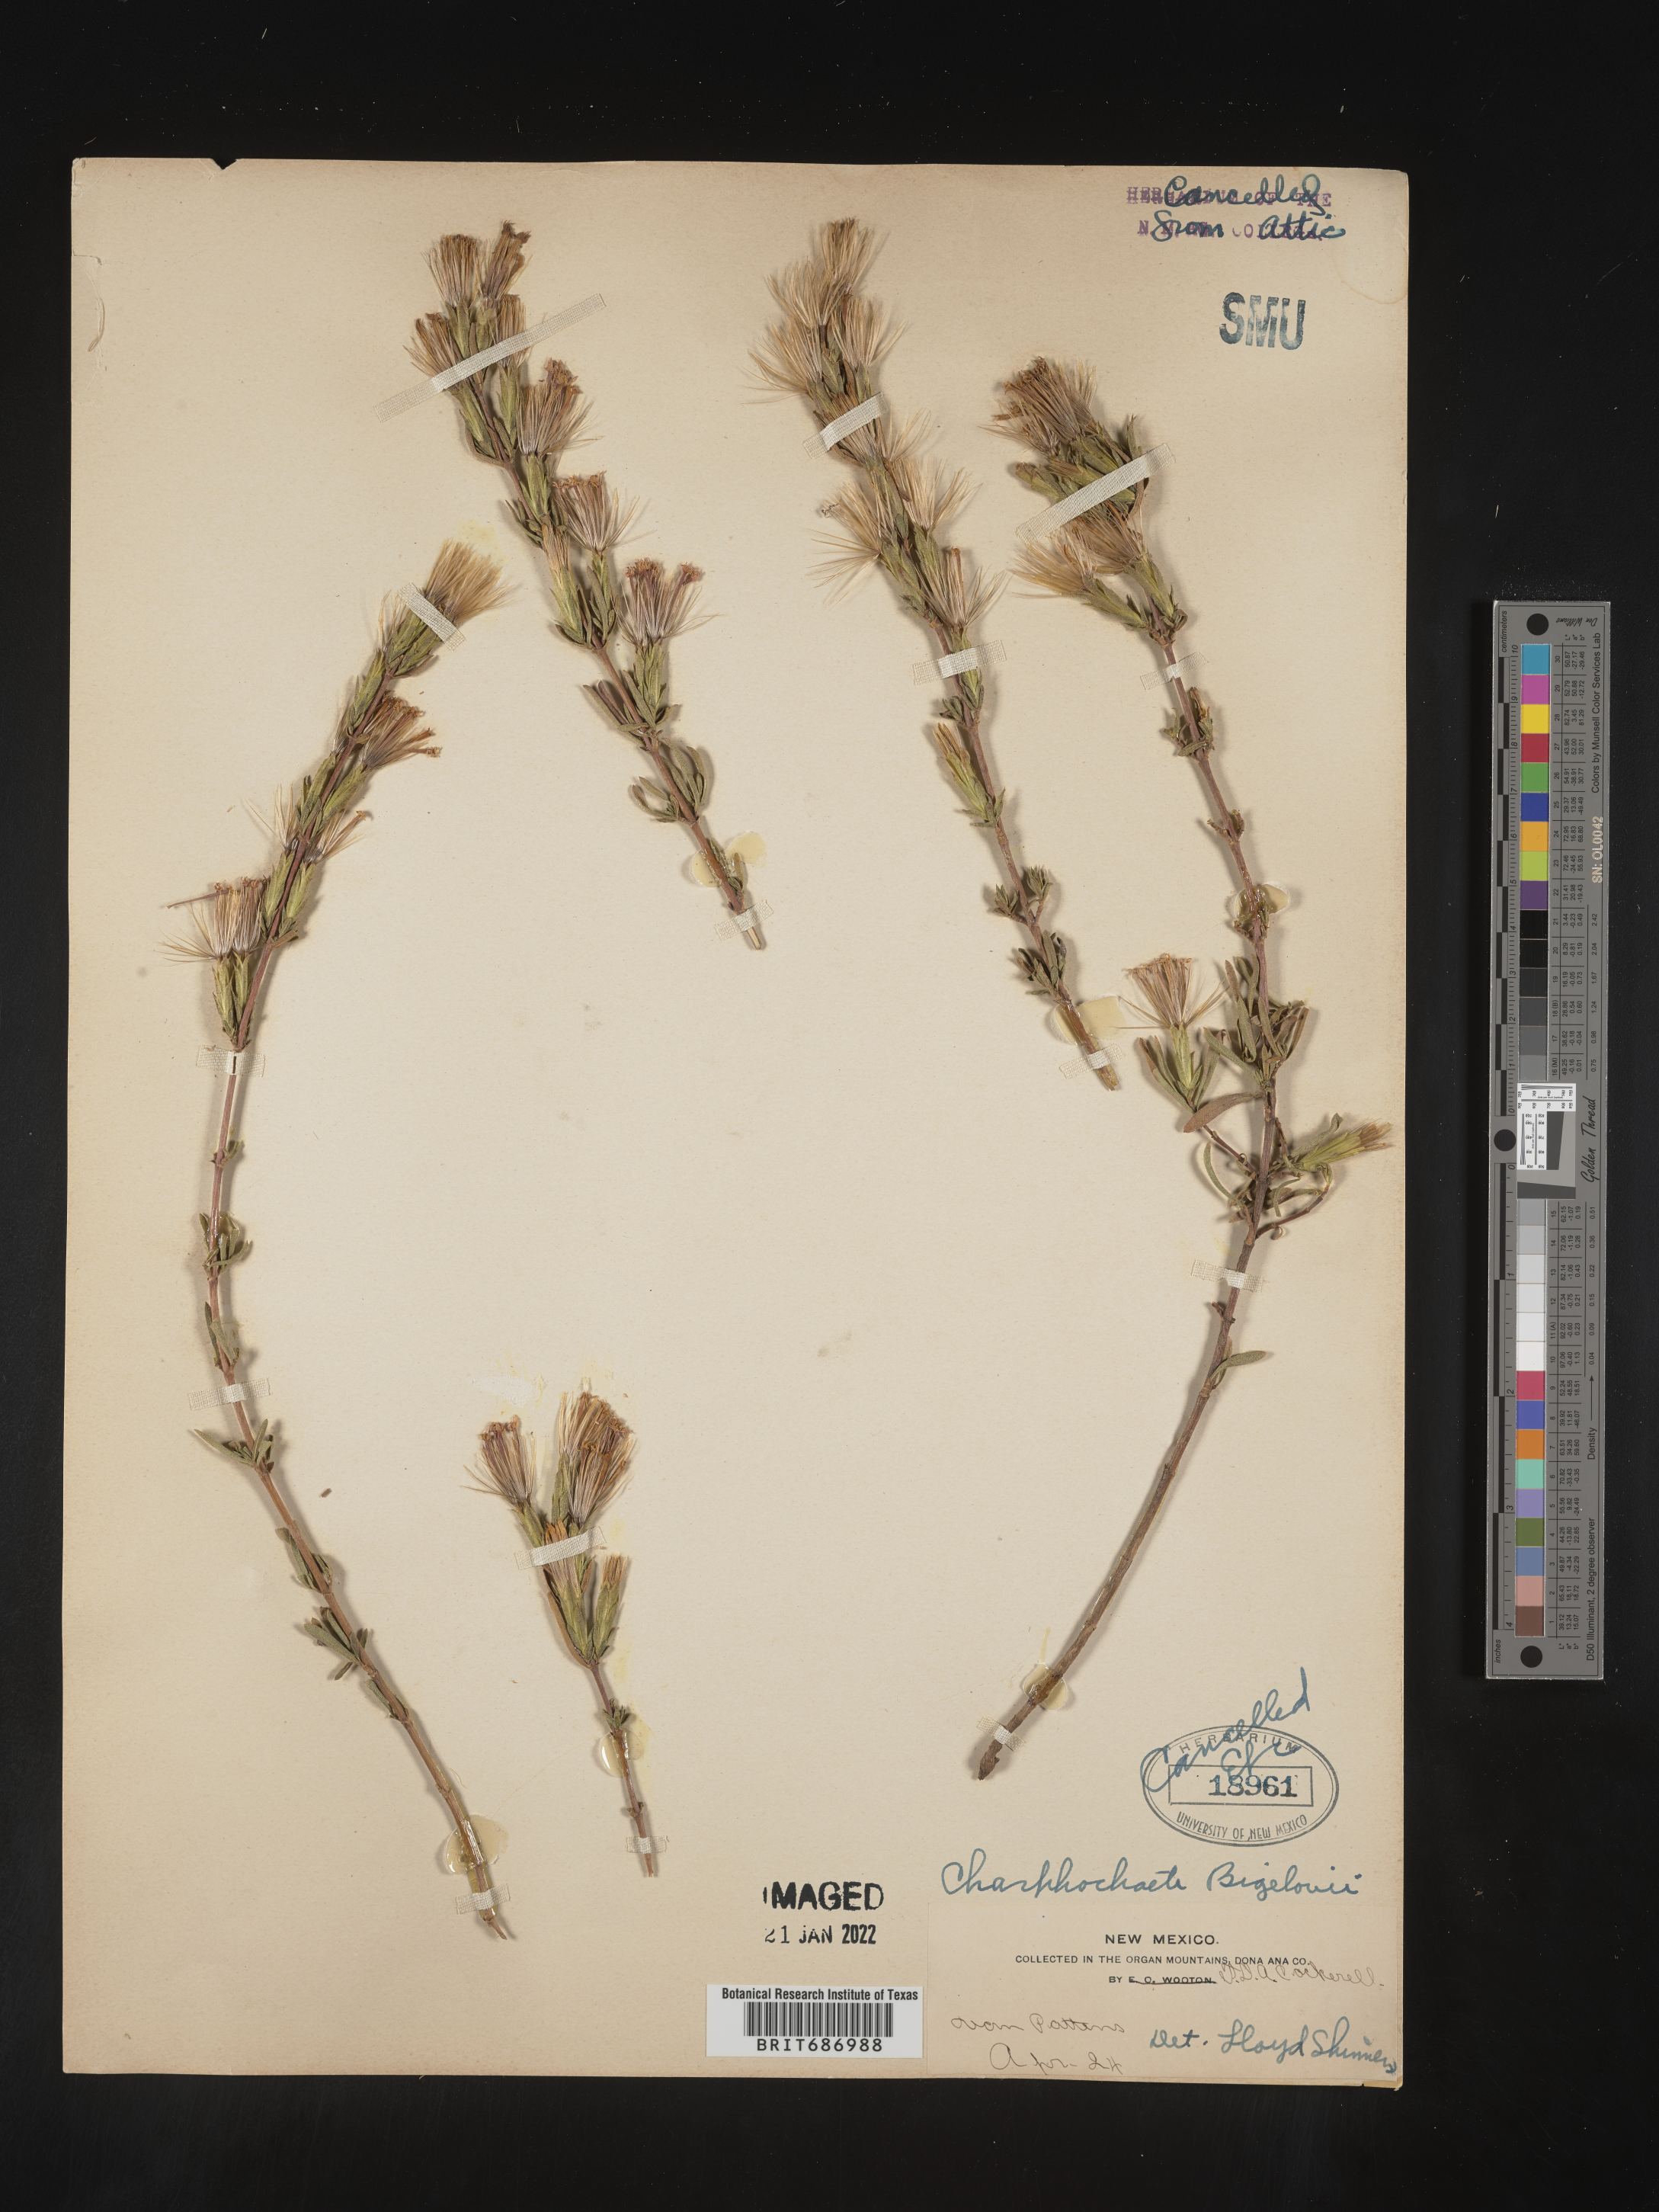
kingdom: Plantae
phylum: Tracheophyta
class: Magnoliopsida
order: Asterales
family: Asteraceae
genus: Carphochaete
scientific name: Carphochaete
